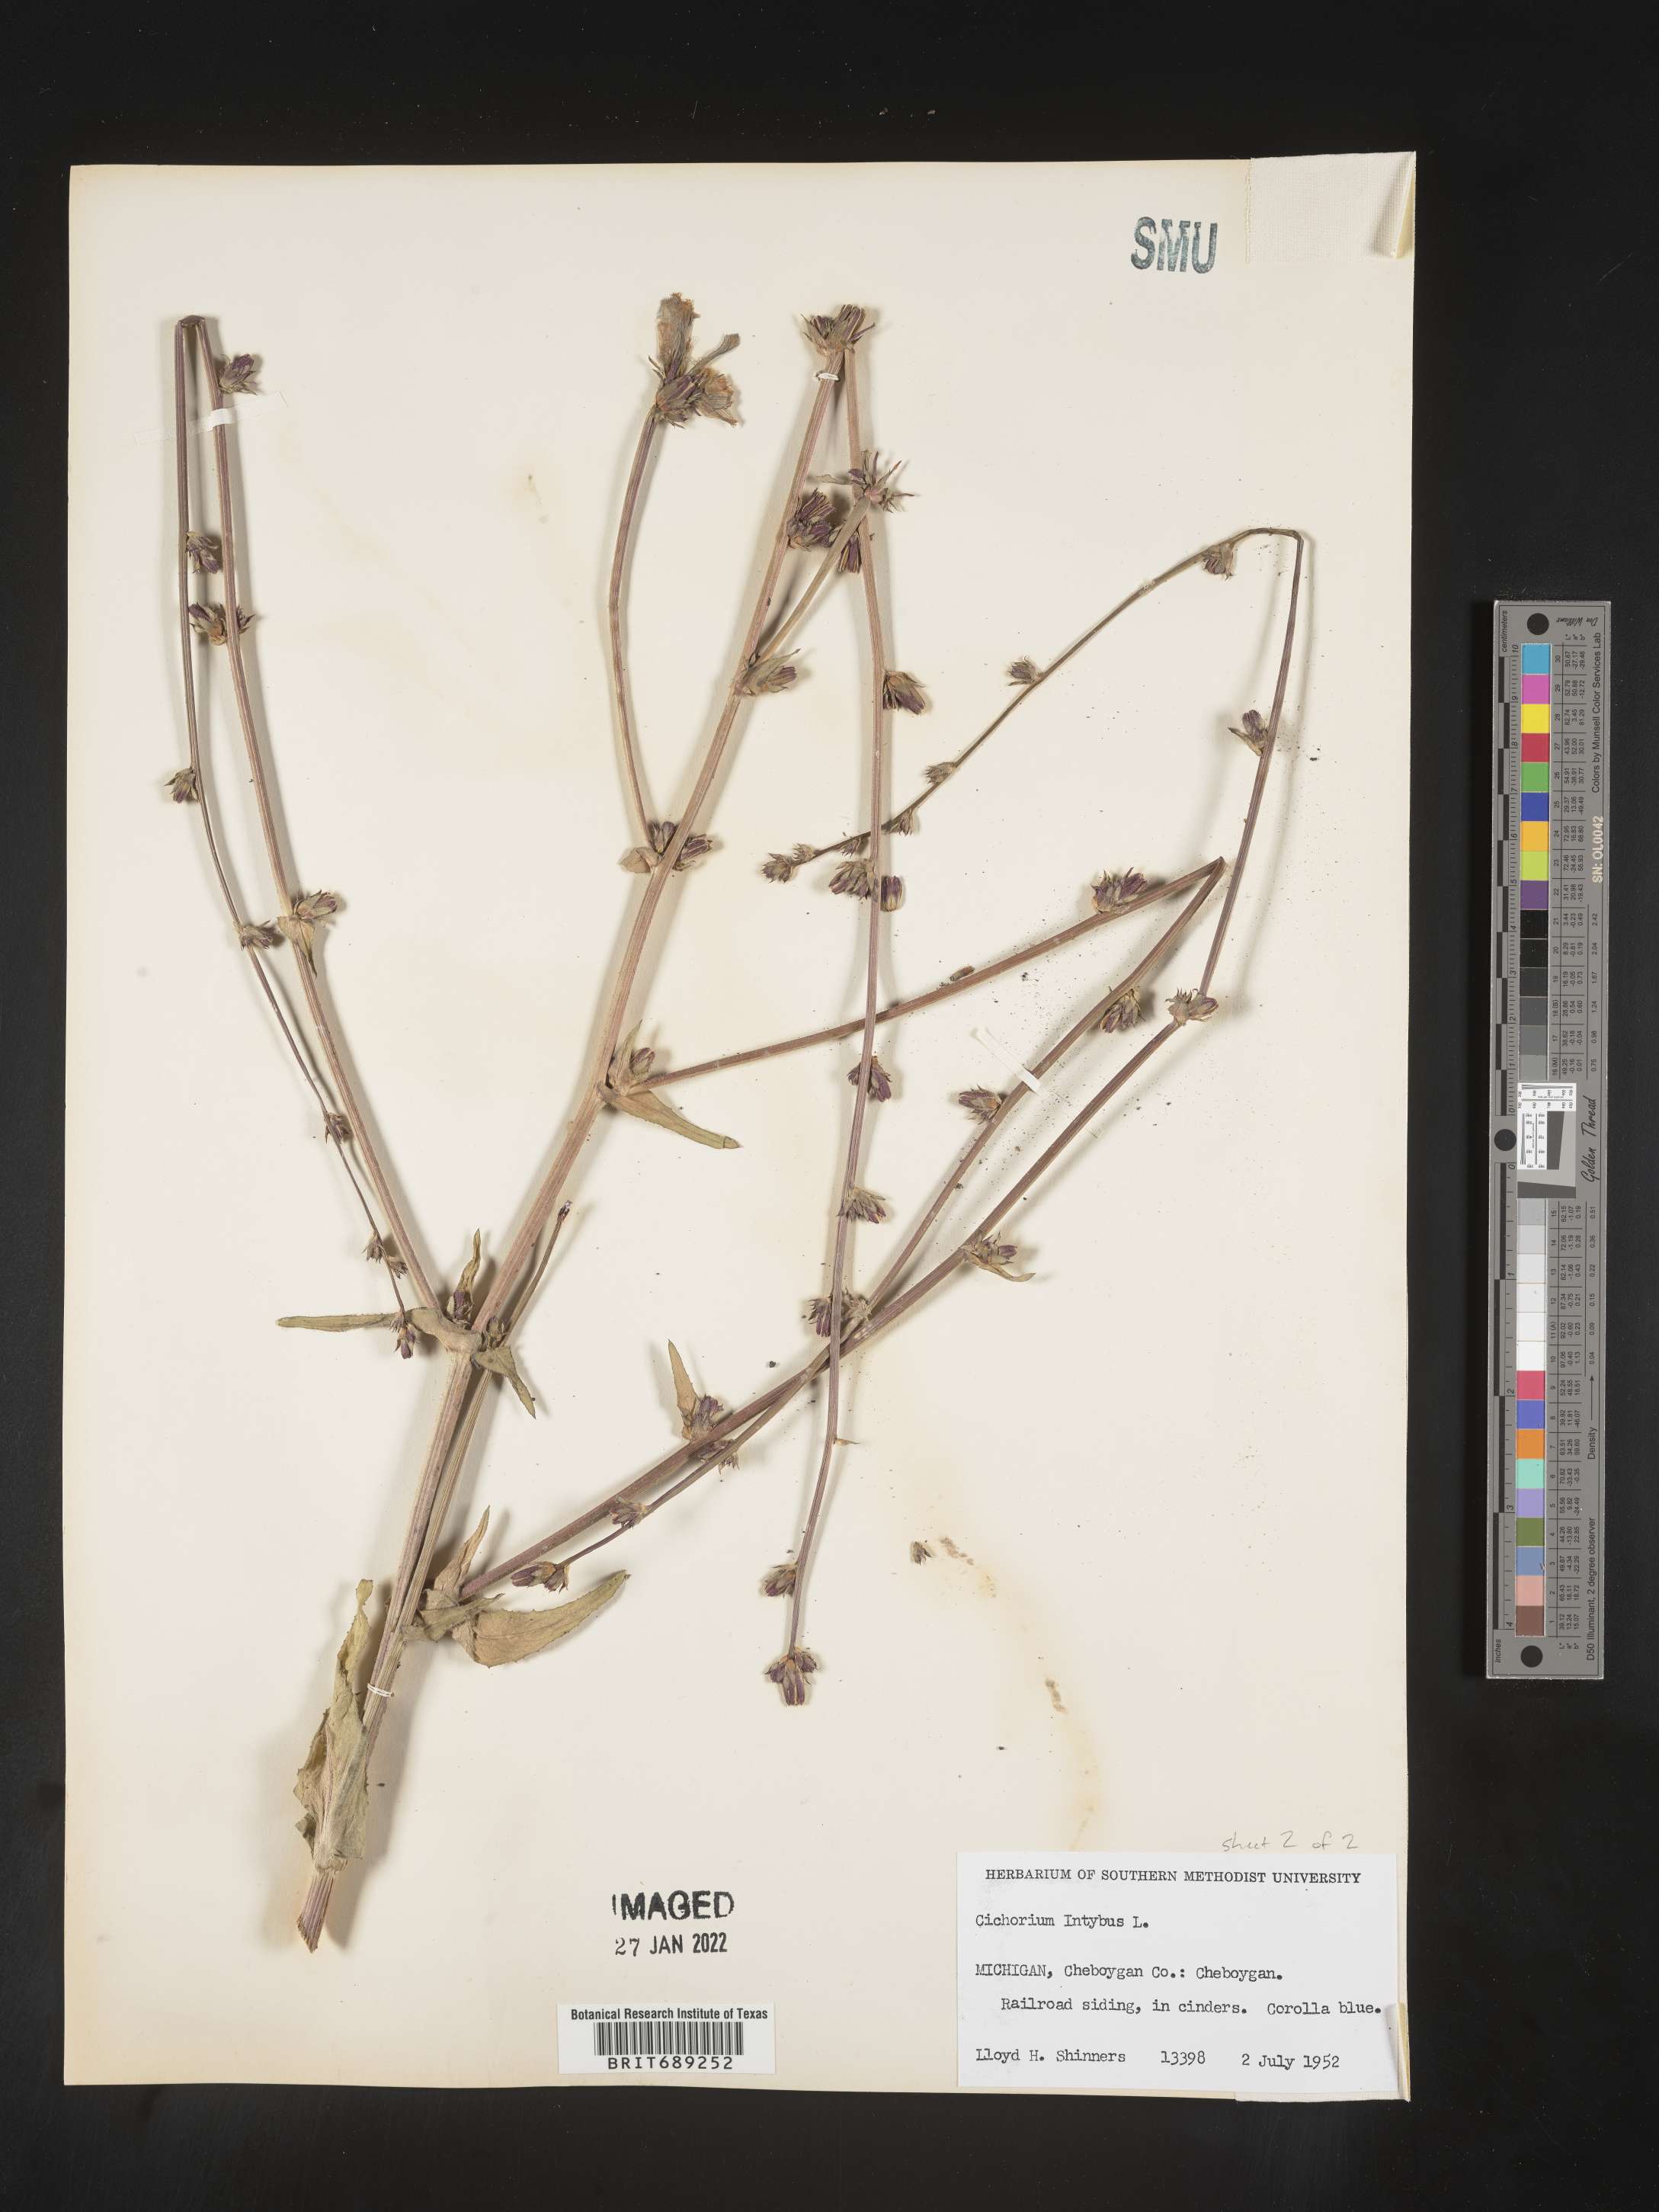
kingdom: Plantae
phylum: Tracheophyta
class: Magnoliopsida
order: Asterales
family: Asteraceae
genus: Cichorium
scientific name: Cichorium intybus
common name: Chicory
